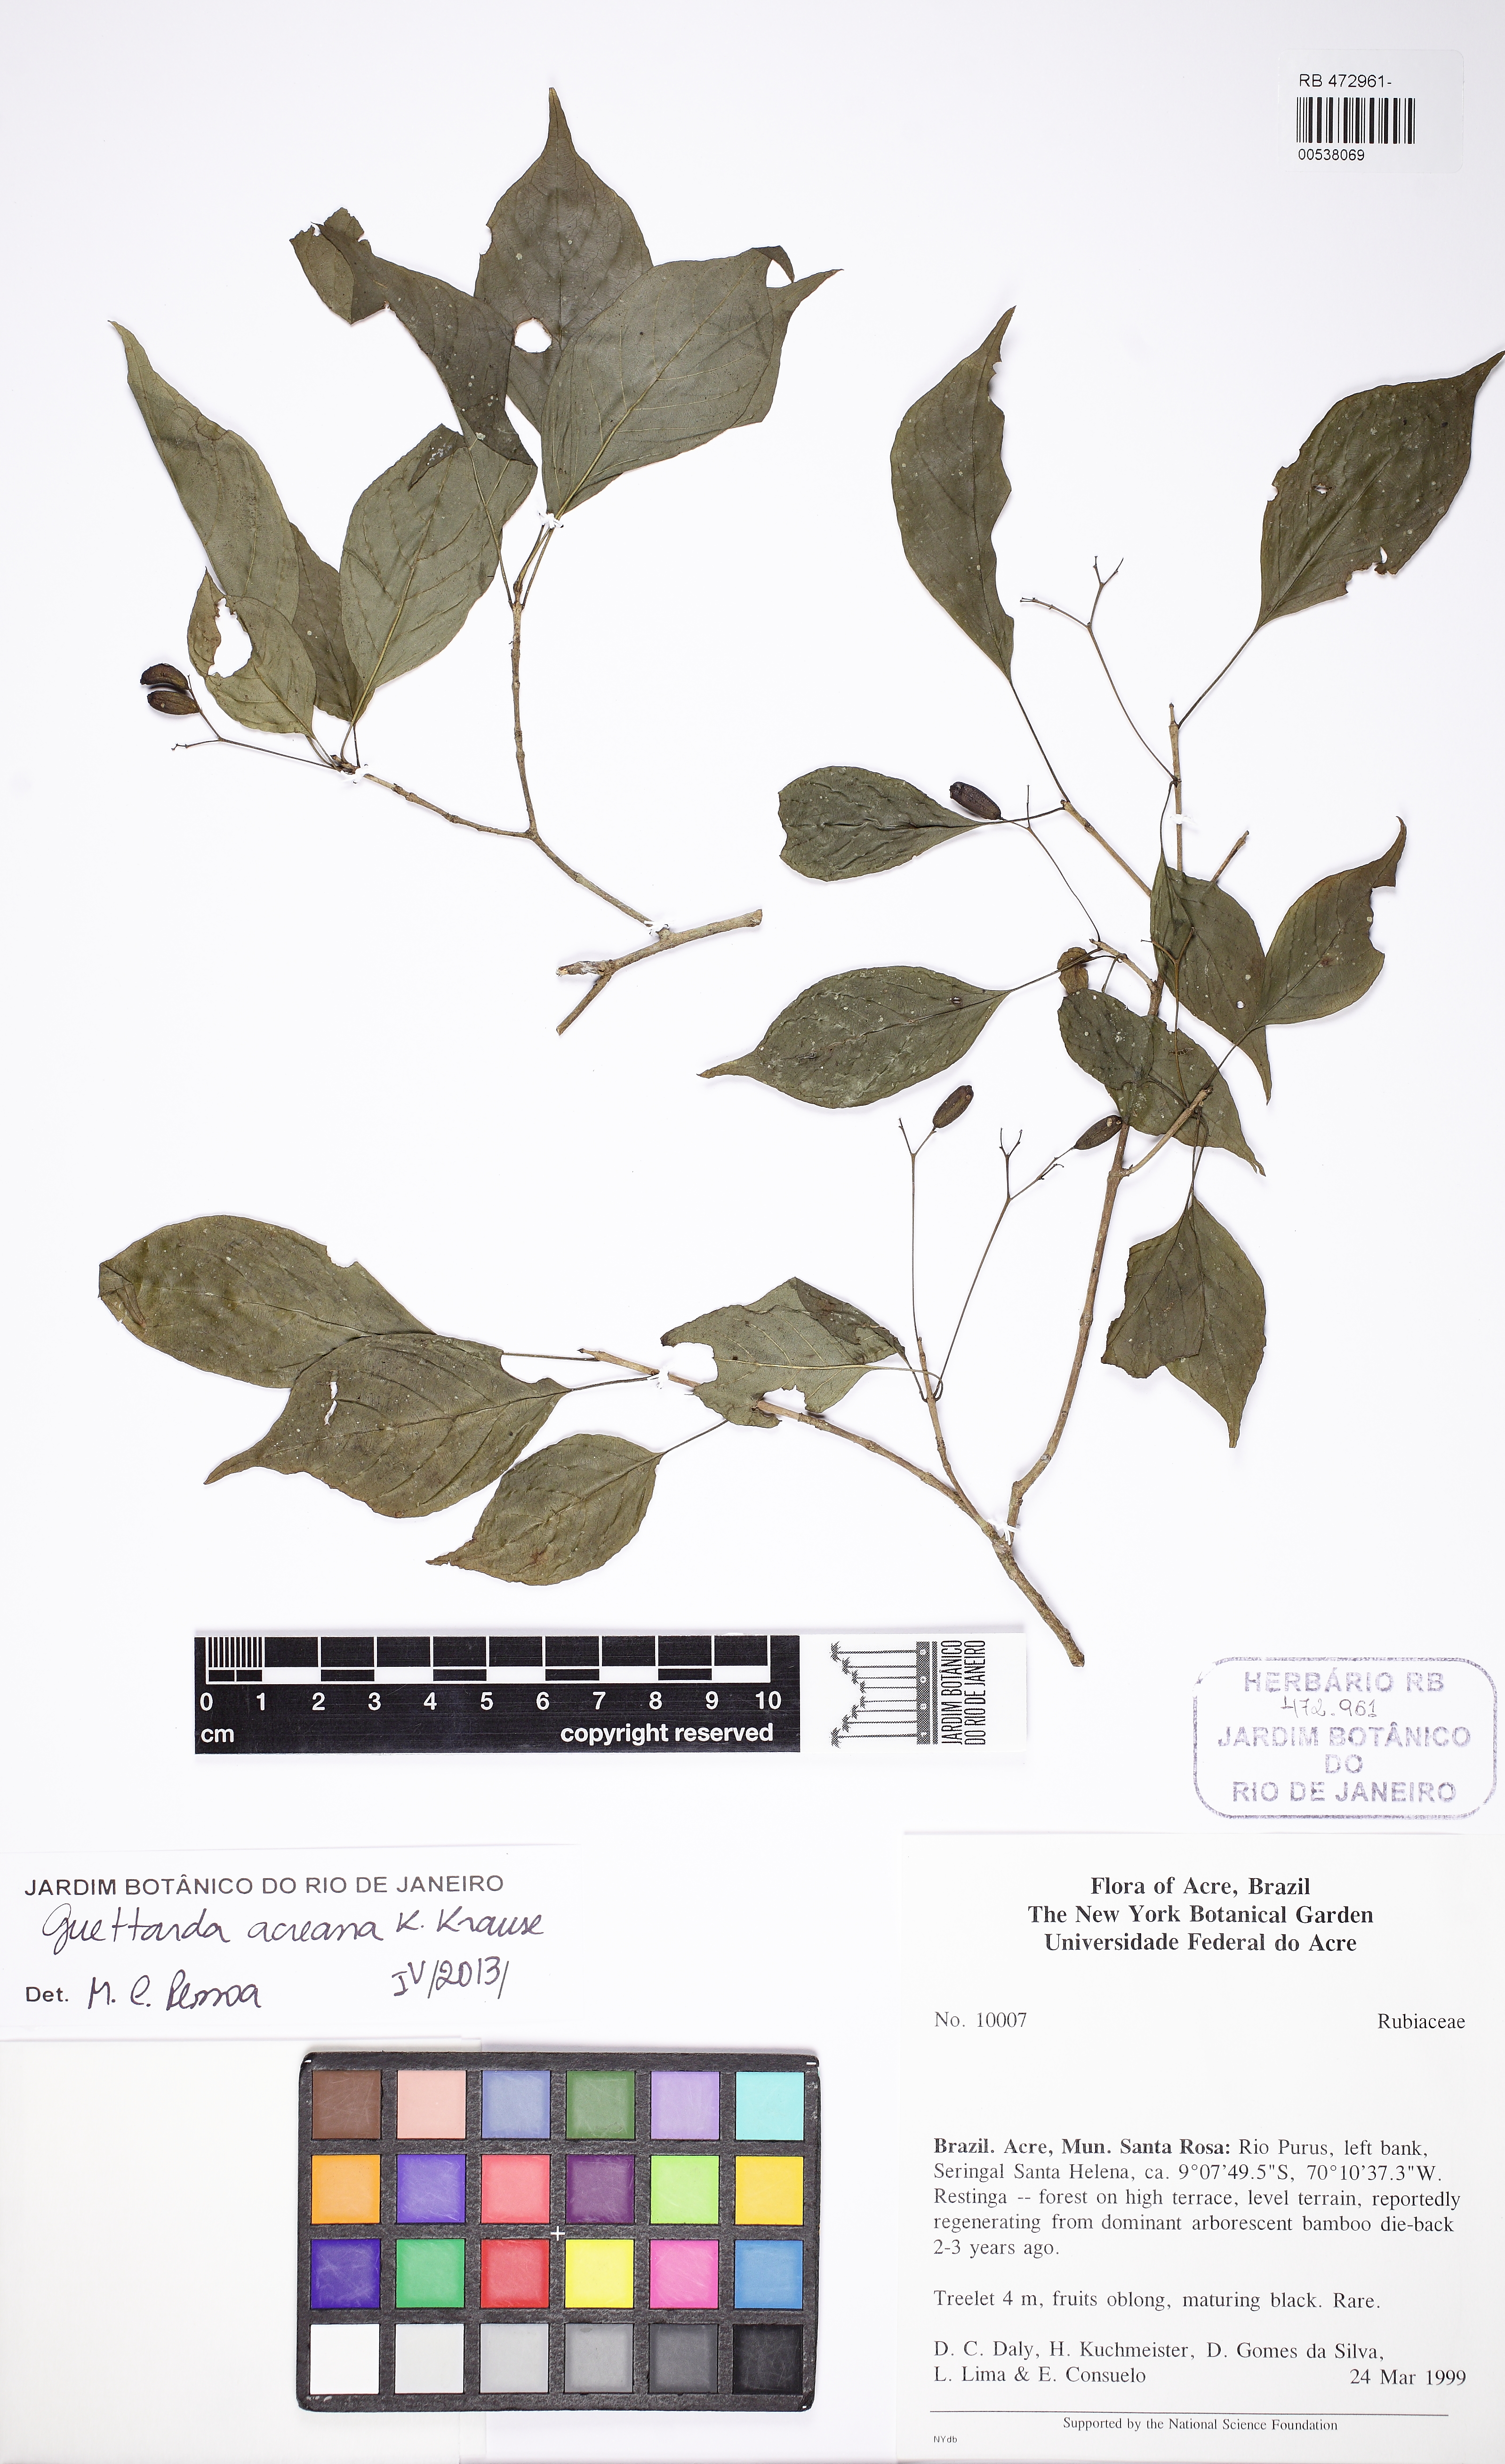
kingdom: Plantae
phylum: Tracheophyta
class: Magnoliopsida
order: Gentianales
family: Rubiaceae
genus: Stenostomum
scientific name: Stenostomum acreanum
